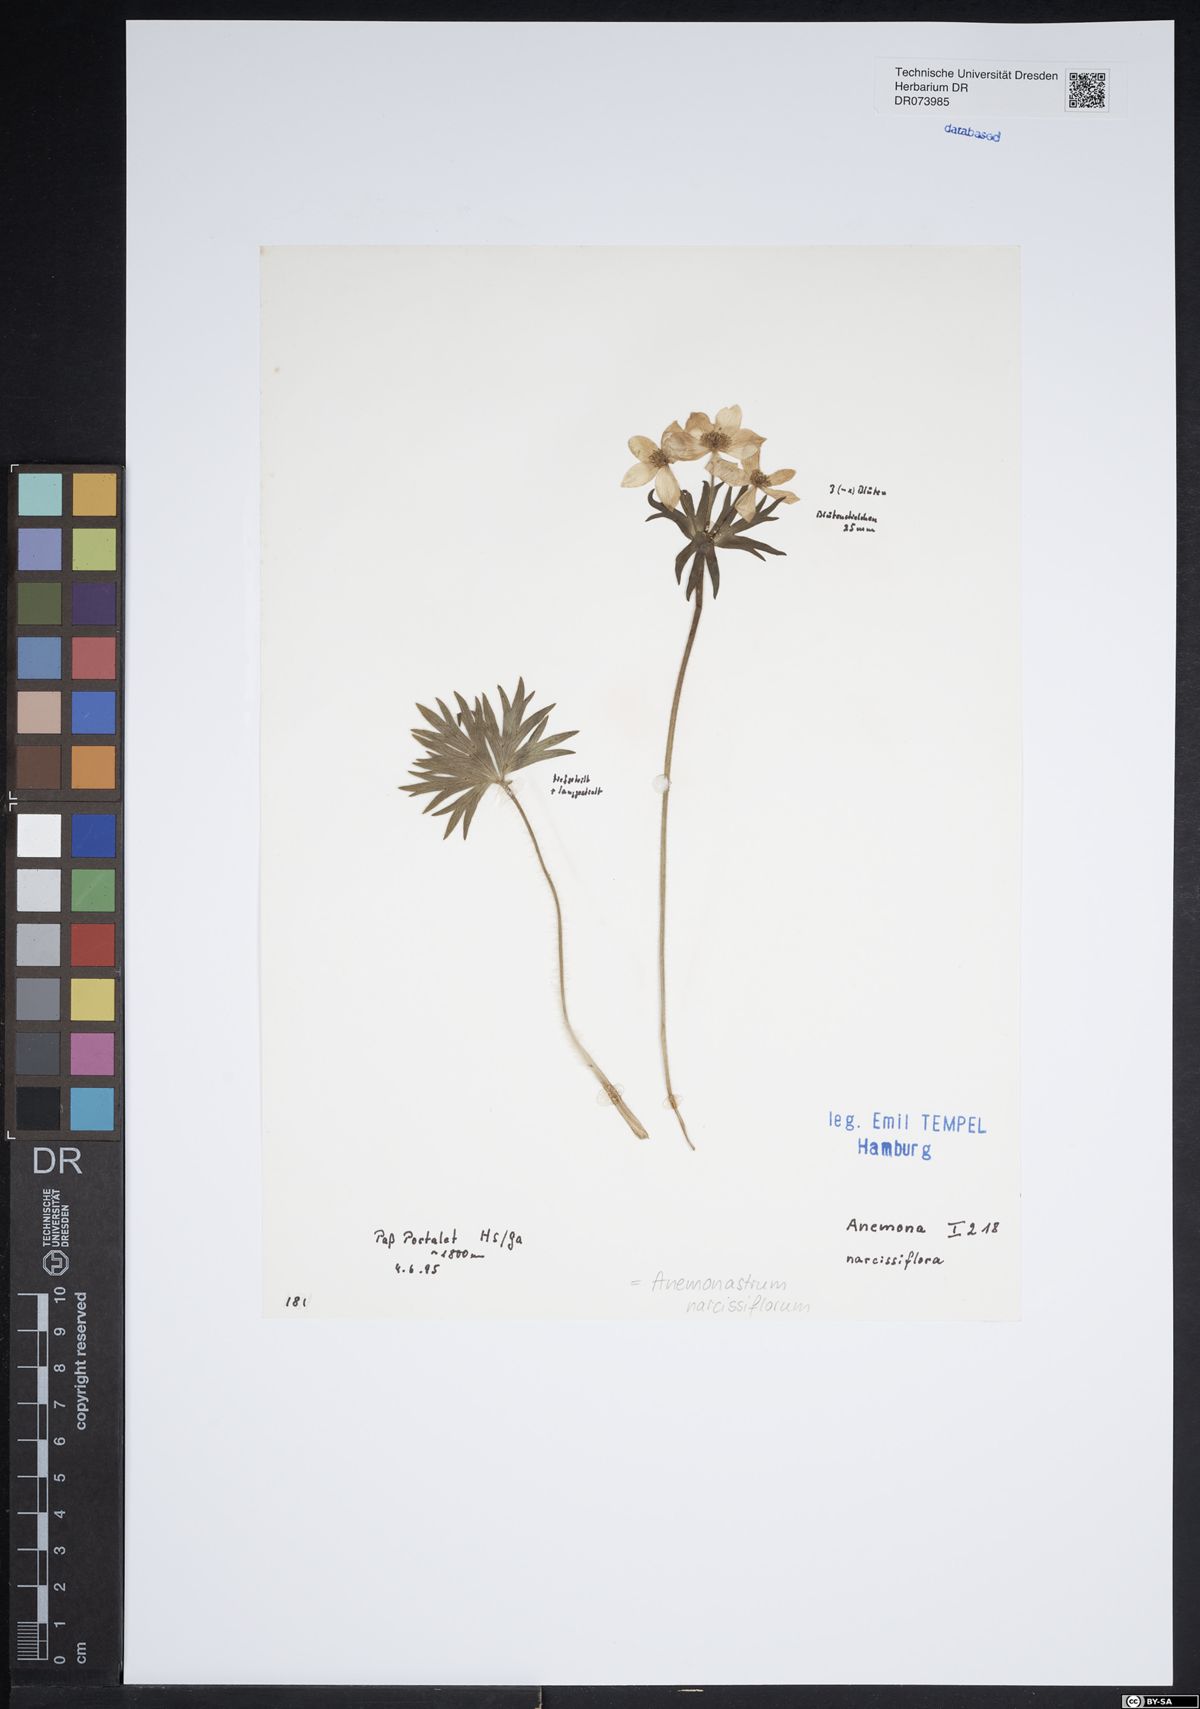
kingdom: Plantae
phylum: Tracheophyta
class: Magnoliopsida
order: Ranunculales
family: Ranunculaceae
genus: Anemonastrum
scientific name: Anemonastrum narcissiflorum
